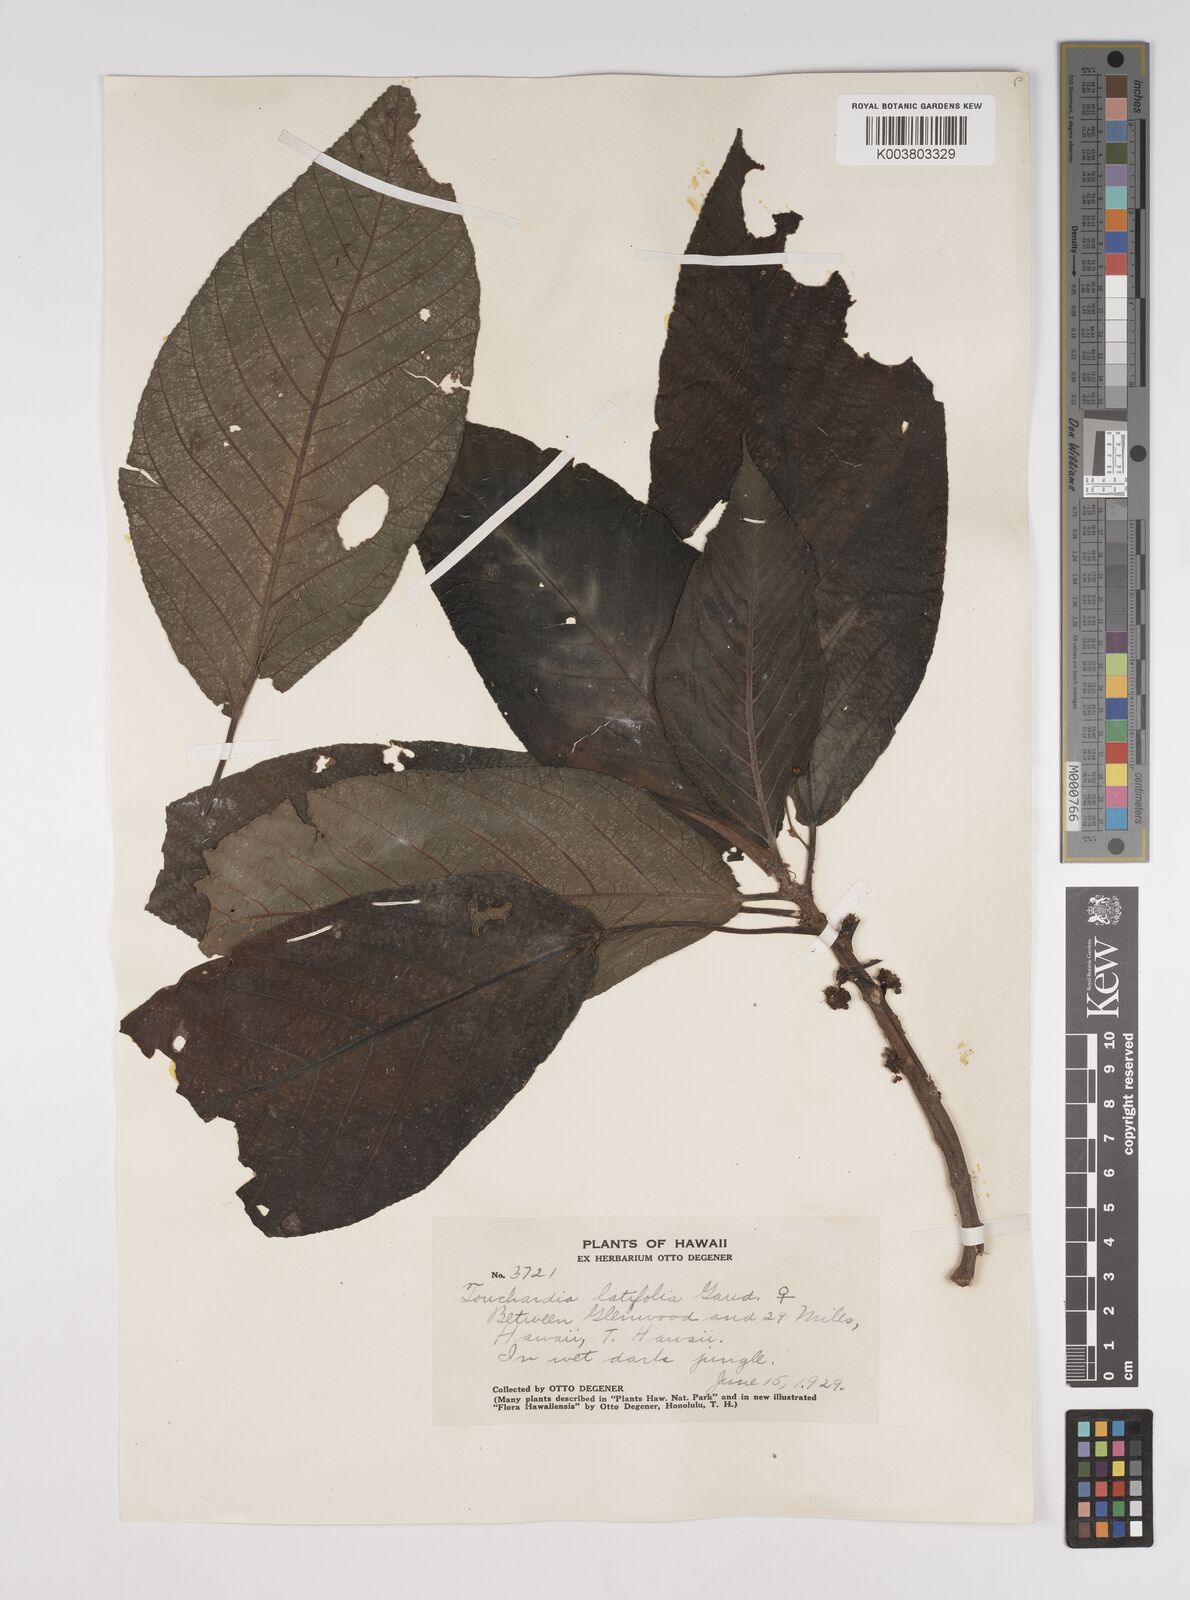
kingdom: Plantae
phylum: Tracheophyta
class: Magnoliopsida
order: Rosales
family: Urticaceae
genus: Touchardia
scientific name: Touchardia latifolia
